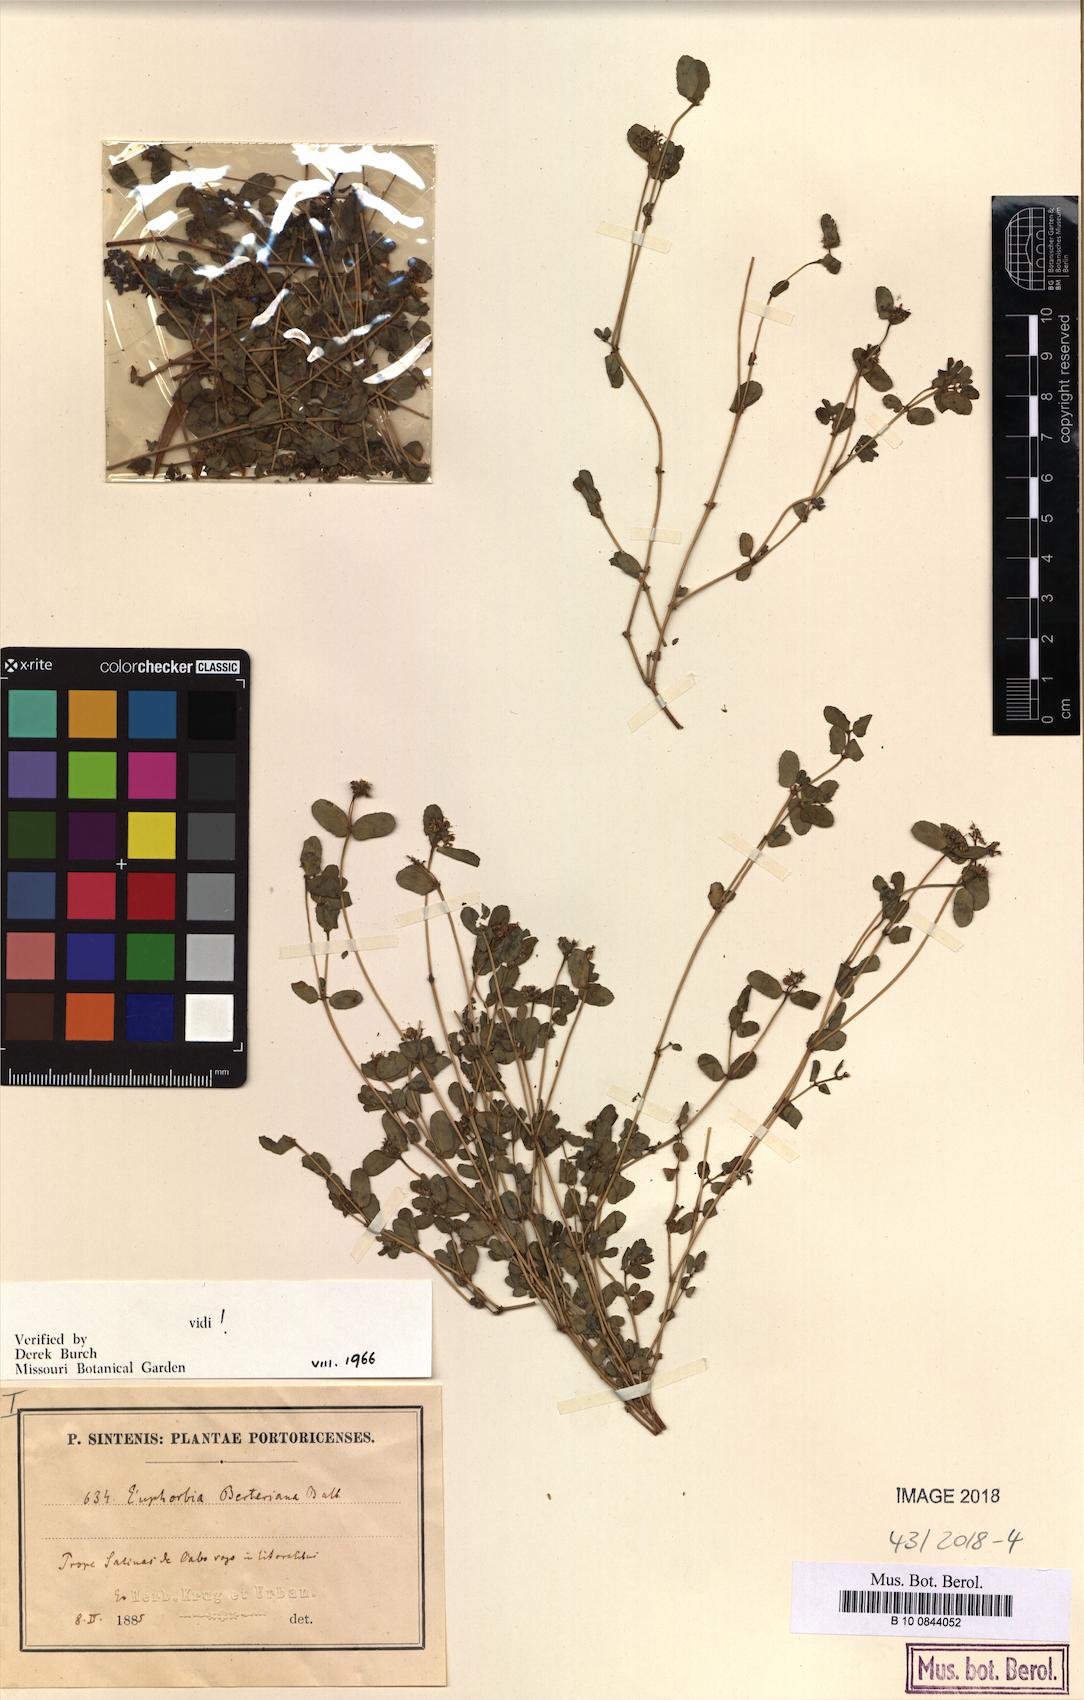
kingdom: Plantae
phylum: Tracheophyta
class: Magnoliopsida
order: Malpighiales
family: Euphorbiaceae
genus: Euphorbia
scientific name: Euphorbia berteroana
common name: Bertero's sandmat
